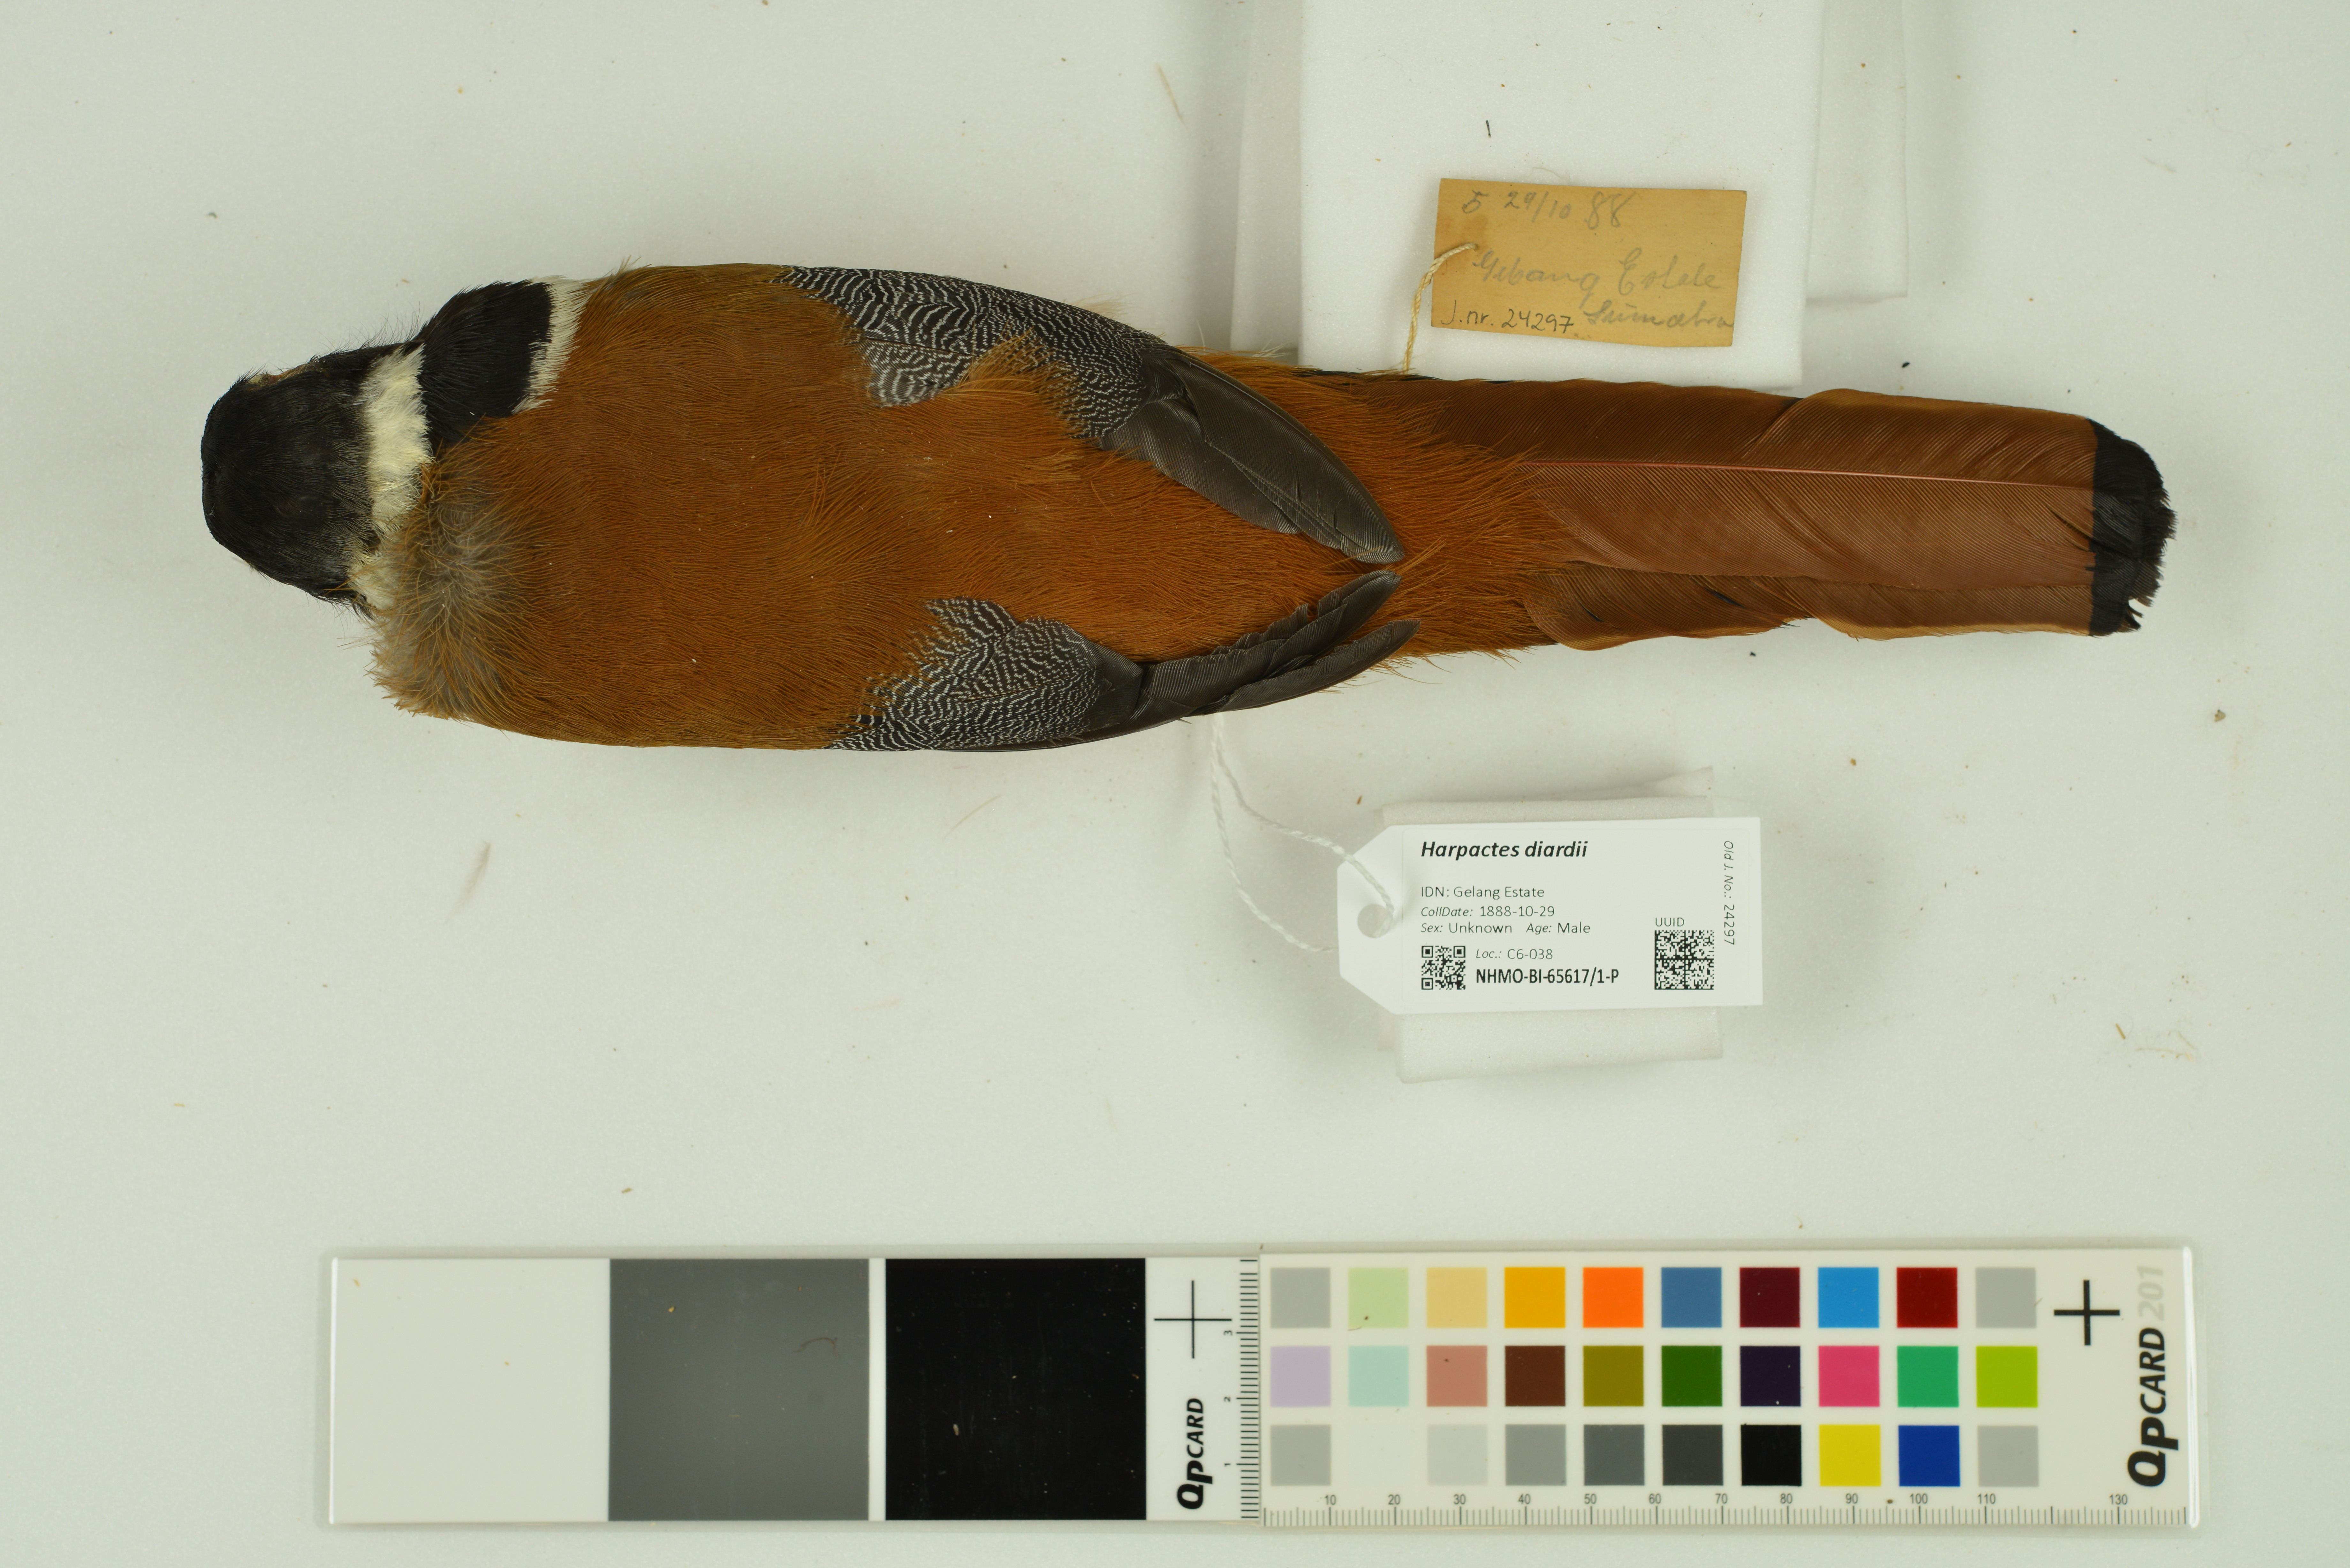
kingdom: Animalia
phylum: Chordata
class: Aves
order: Trogoniformes
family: Trogonidae
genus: Harpactes
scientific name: Harpactes diardii
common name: Diard's trogon
